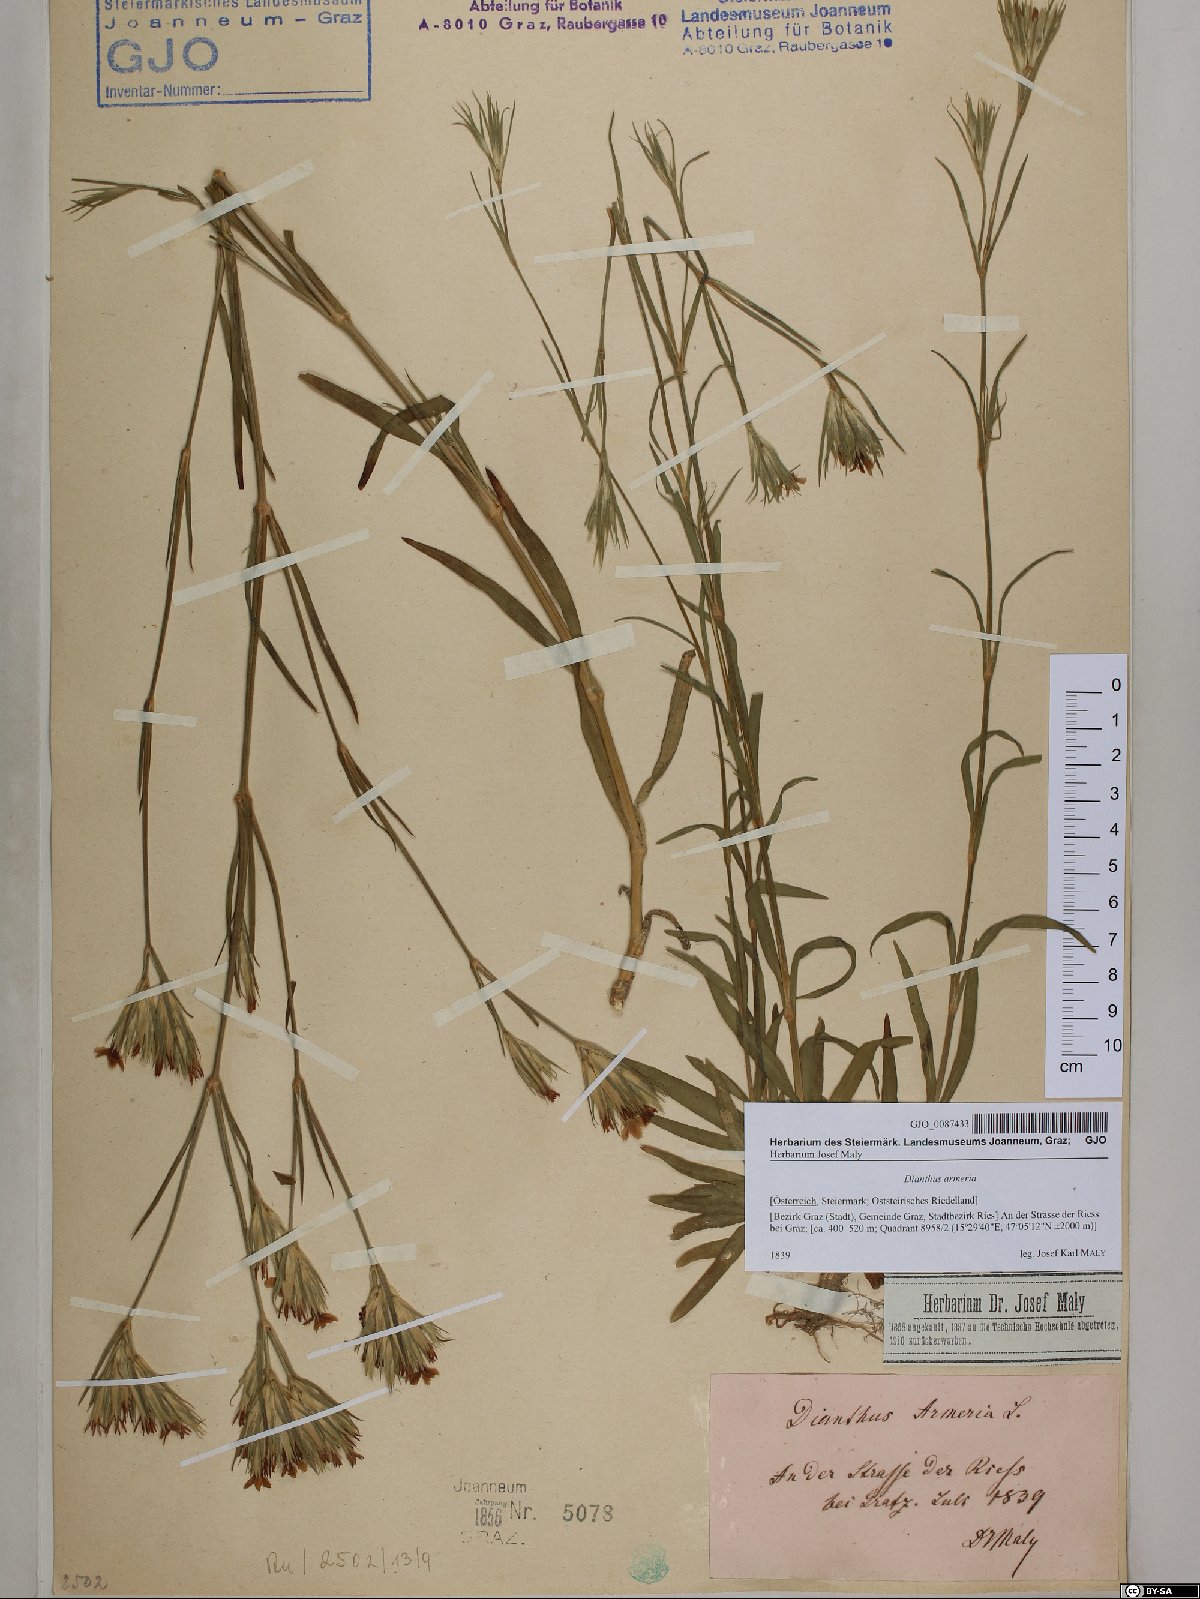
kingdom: Plantae
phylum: Tracheophyta
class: Magnoliopsida
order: Caryophyllales
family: Caryophyllaceae
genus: Dianthus
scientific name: Dianthus armeria
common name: Deptford pink
